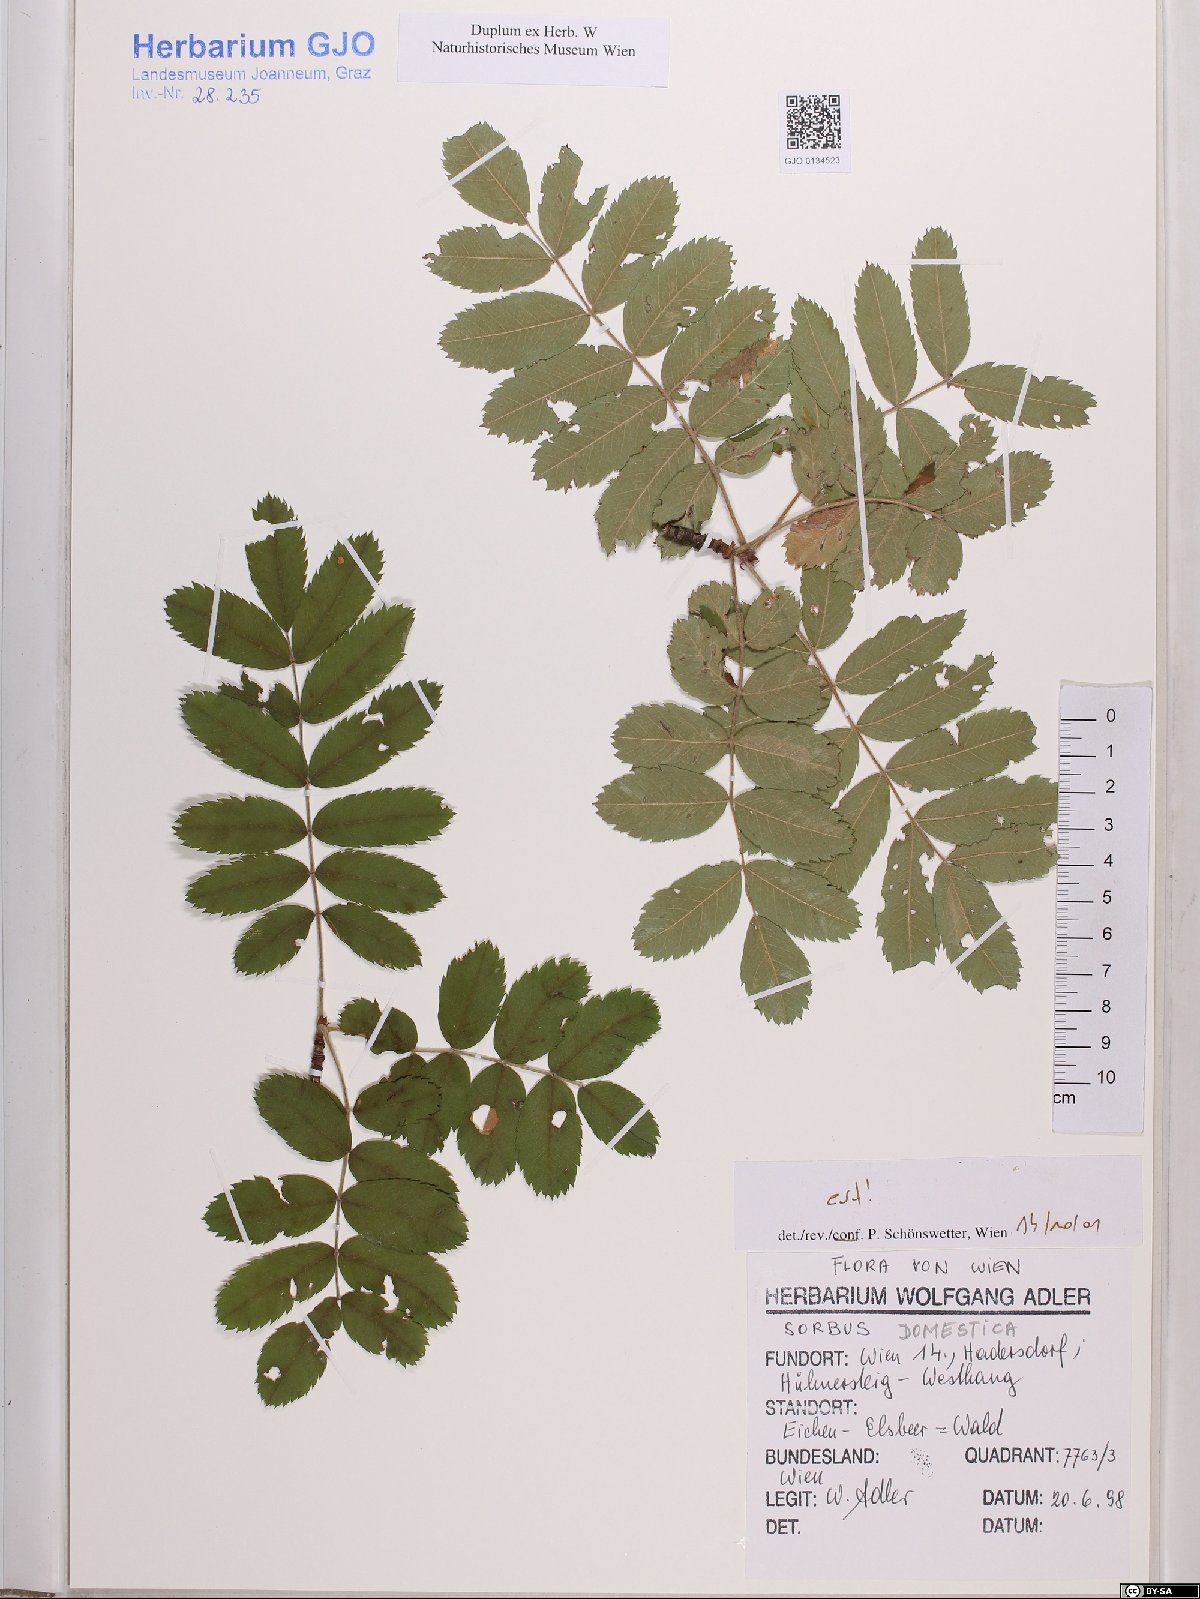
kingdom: Plantae
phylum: Tracheophyta
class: Magnoliopsida
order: Rosales
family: Rosaceae
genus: Cormus
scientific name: Cormus domestica
